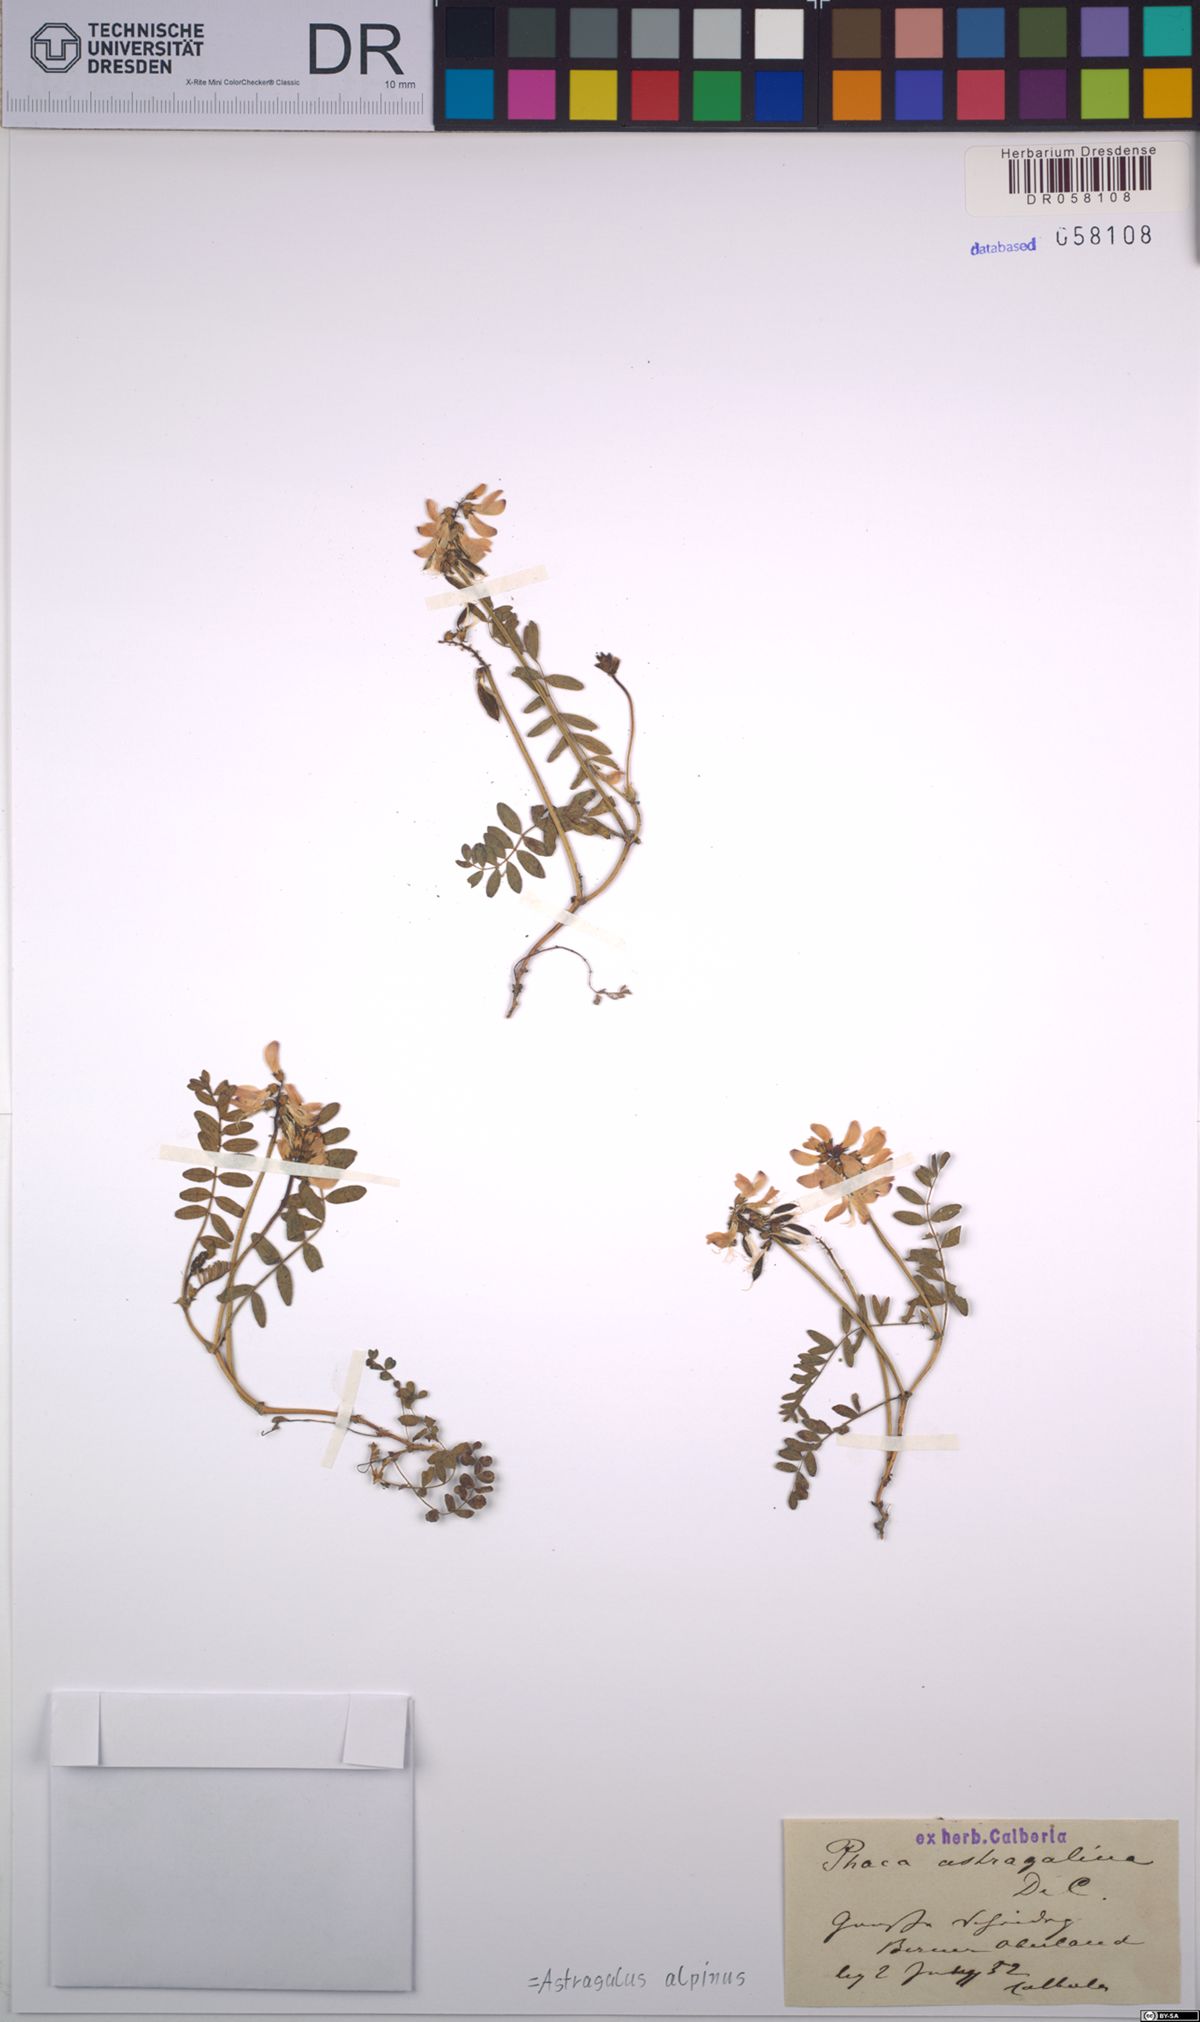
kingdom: Plantae
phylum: Tracheophyta
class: Magnoliopsida
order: Fabales
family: Fabaceae
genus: Astragalus
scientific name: Astragalus alpinus
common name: Alpine milk-vetch
